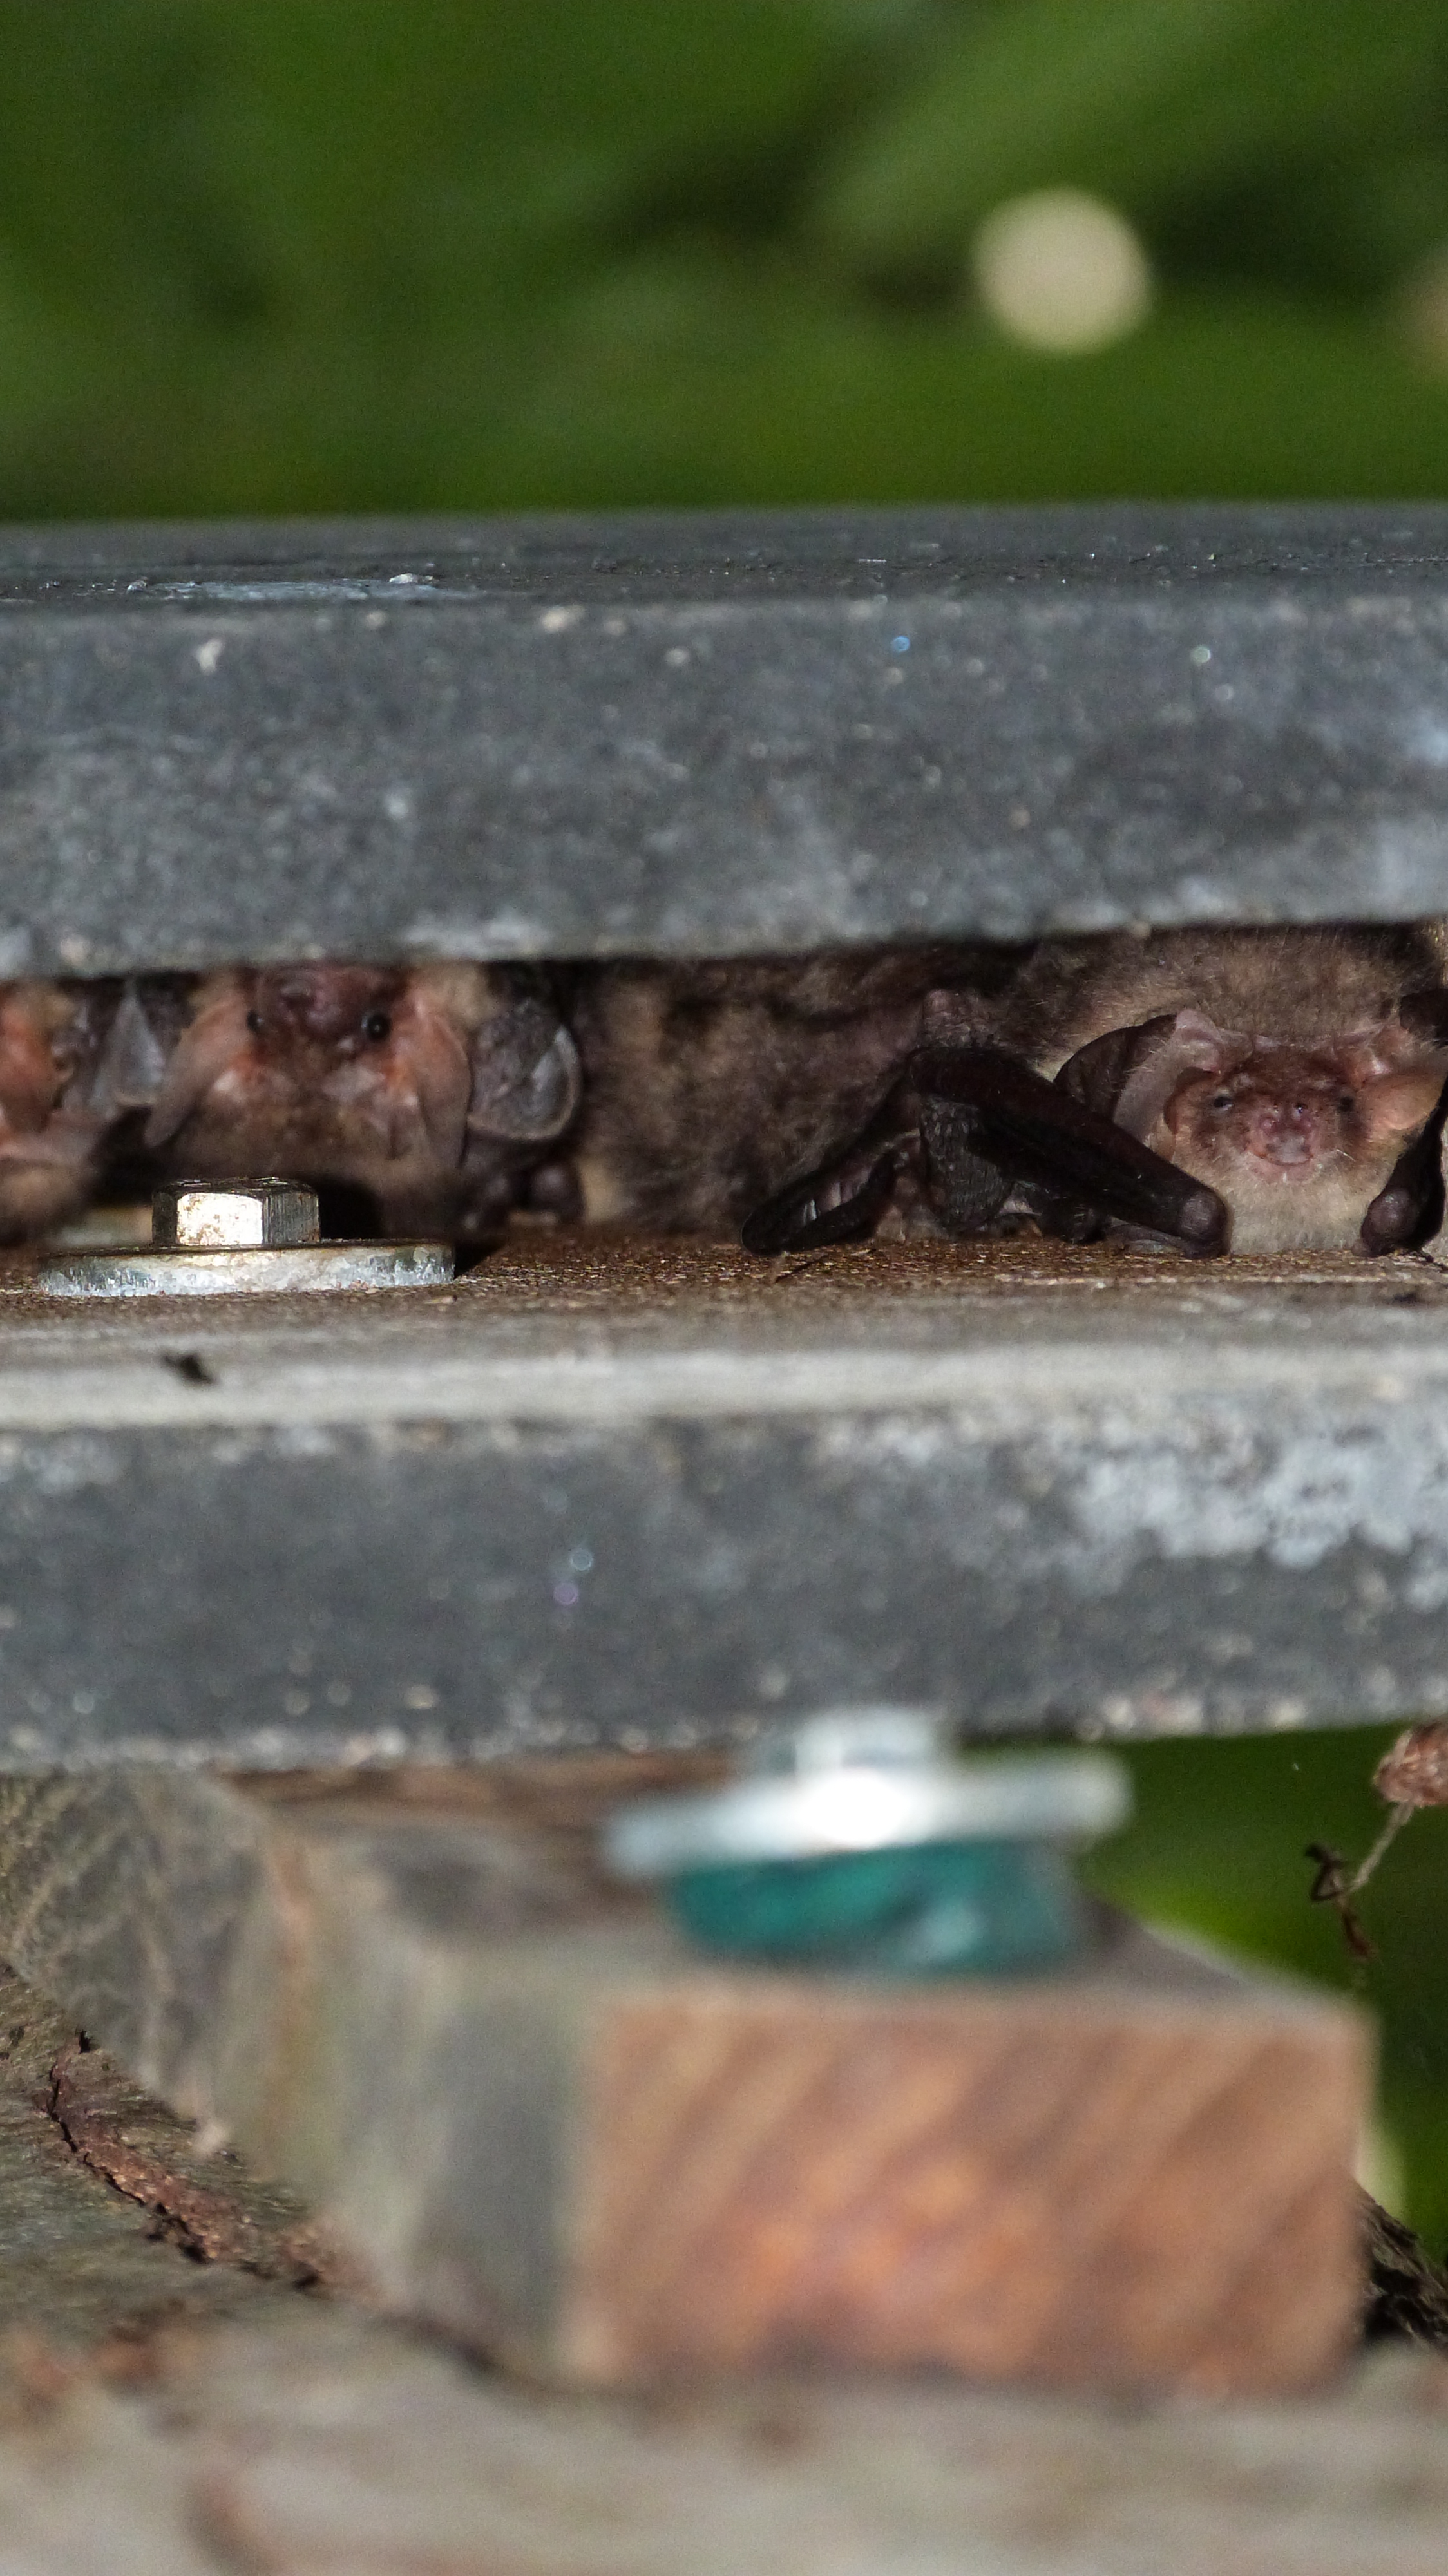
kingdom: Animalia
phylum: Chordata
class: Mammalia
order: Chiroptera
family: Vespertilionidae
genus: Plecotus
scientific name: Plecotus auritus
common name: Brown long-eared bat
